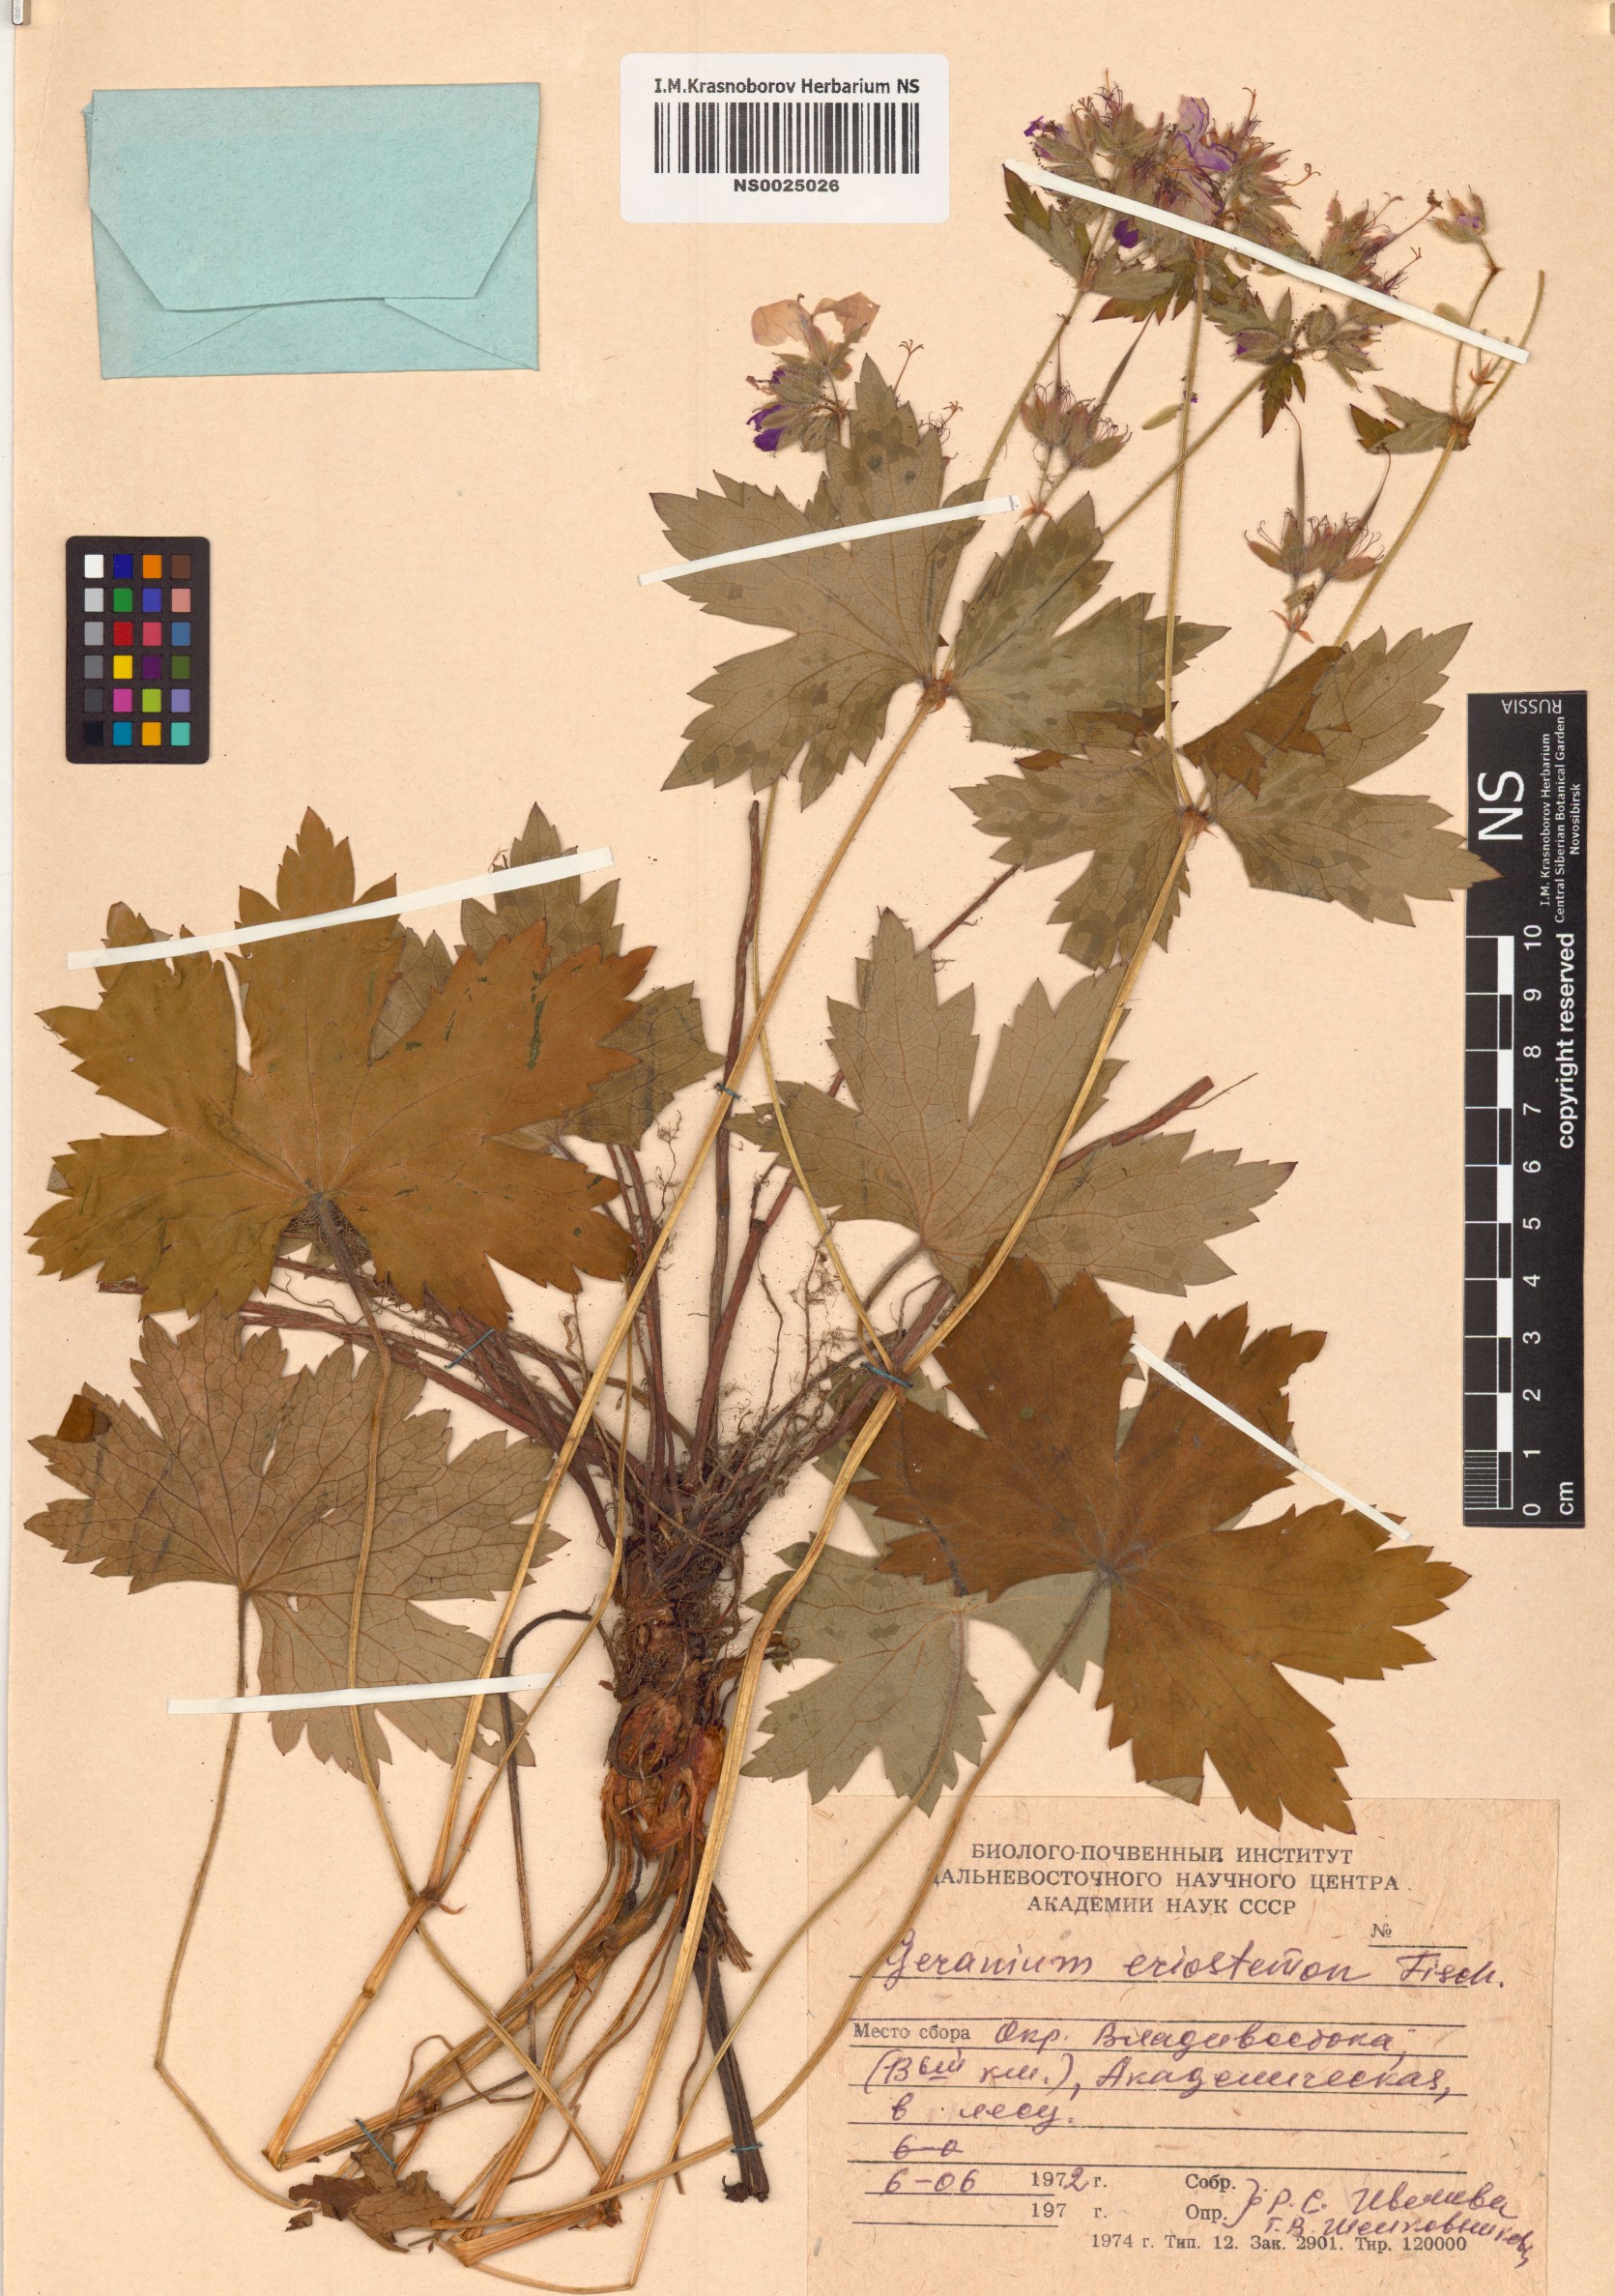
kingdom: Plantae
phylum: Tracheophyta
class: Magnoliopsida
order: Geraniales
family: Geraniaceae
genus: Geranium
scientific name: Geranium platyanthum
